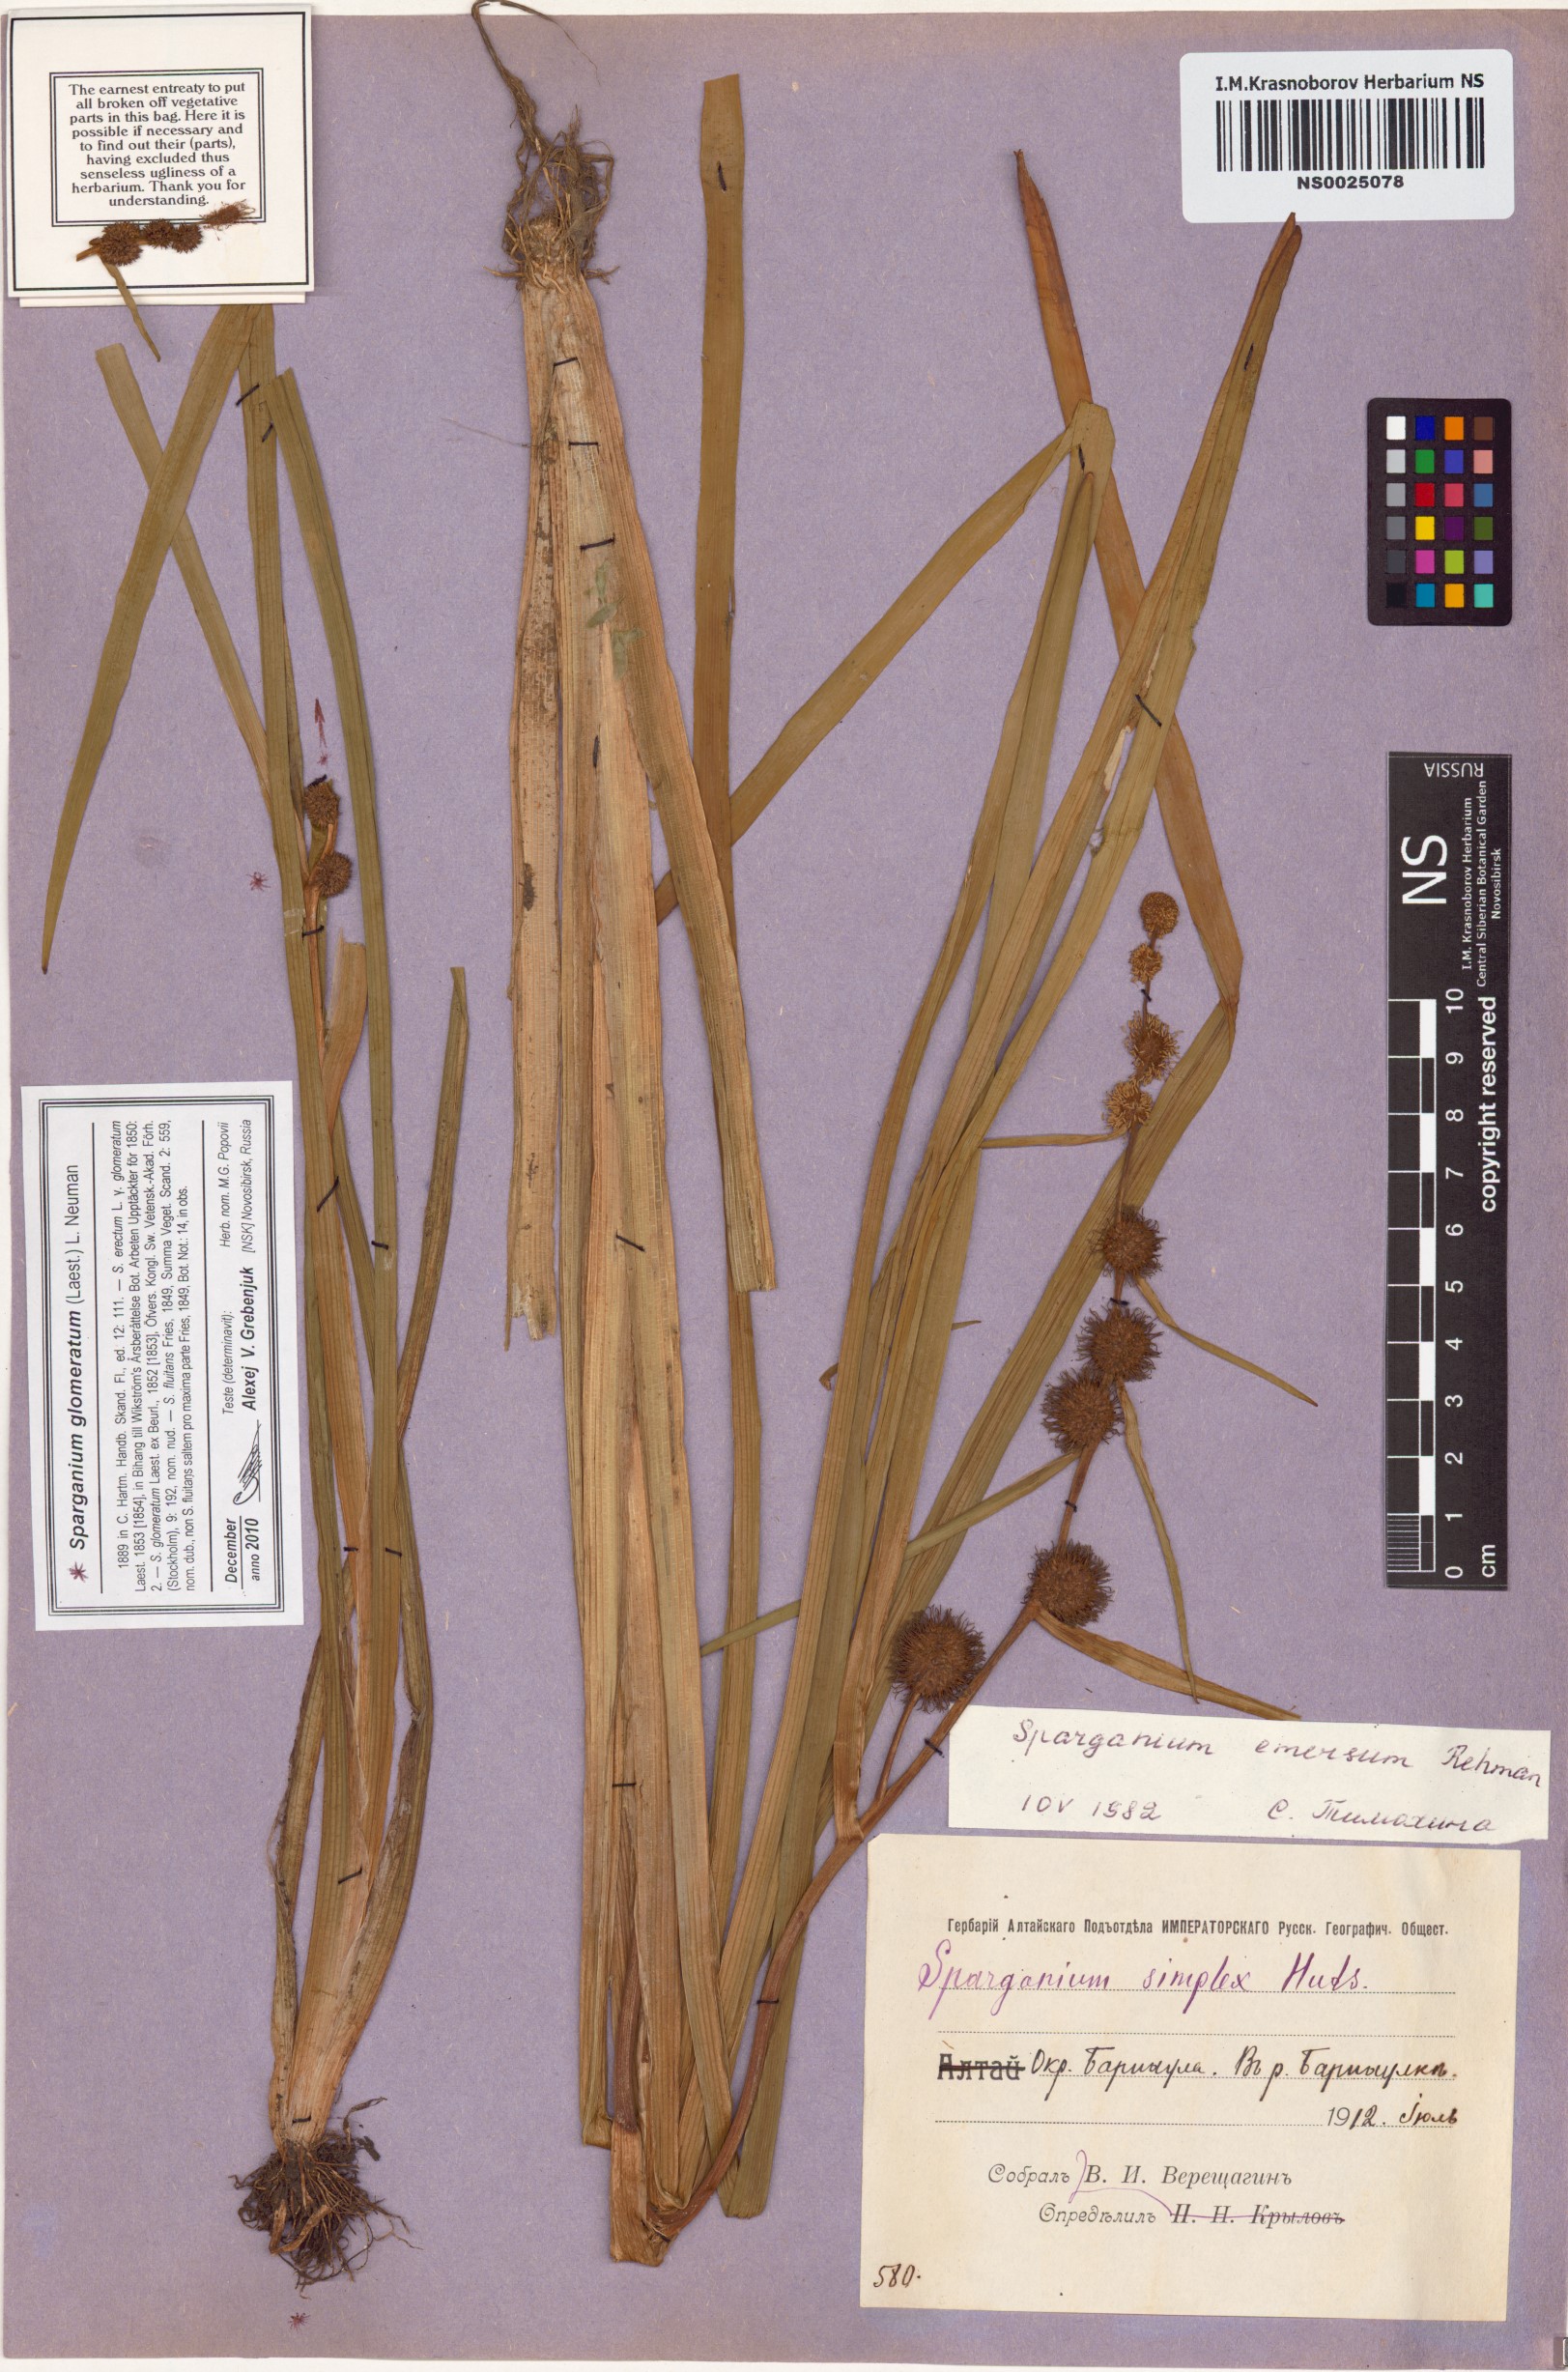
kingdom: Plantae
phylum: Tracheophyta
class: Liliopsida
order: Poales
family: Typhaceae
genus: Sparganium
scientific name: Sparganium emersum
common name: Unbranched bur-reed
